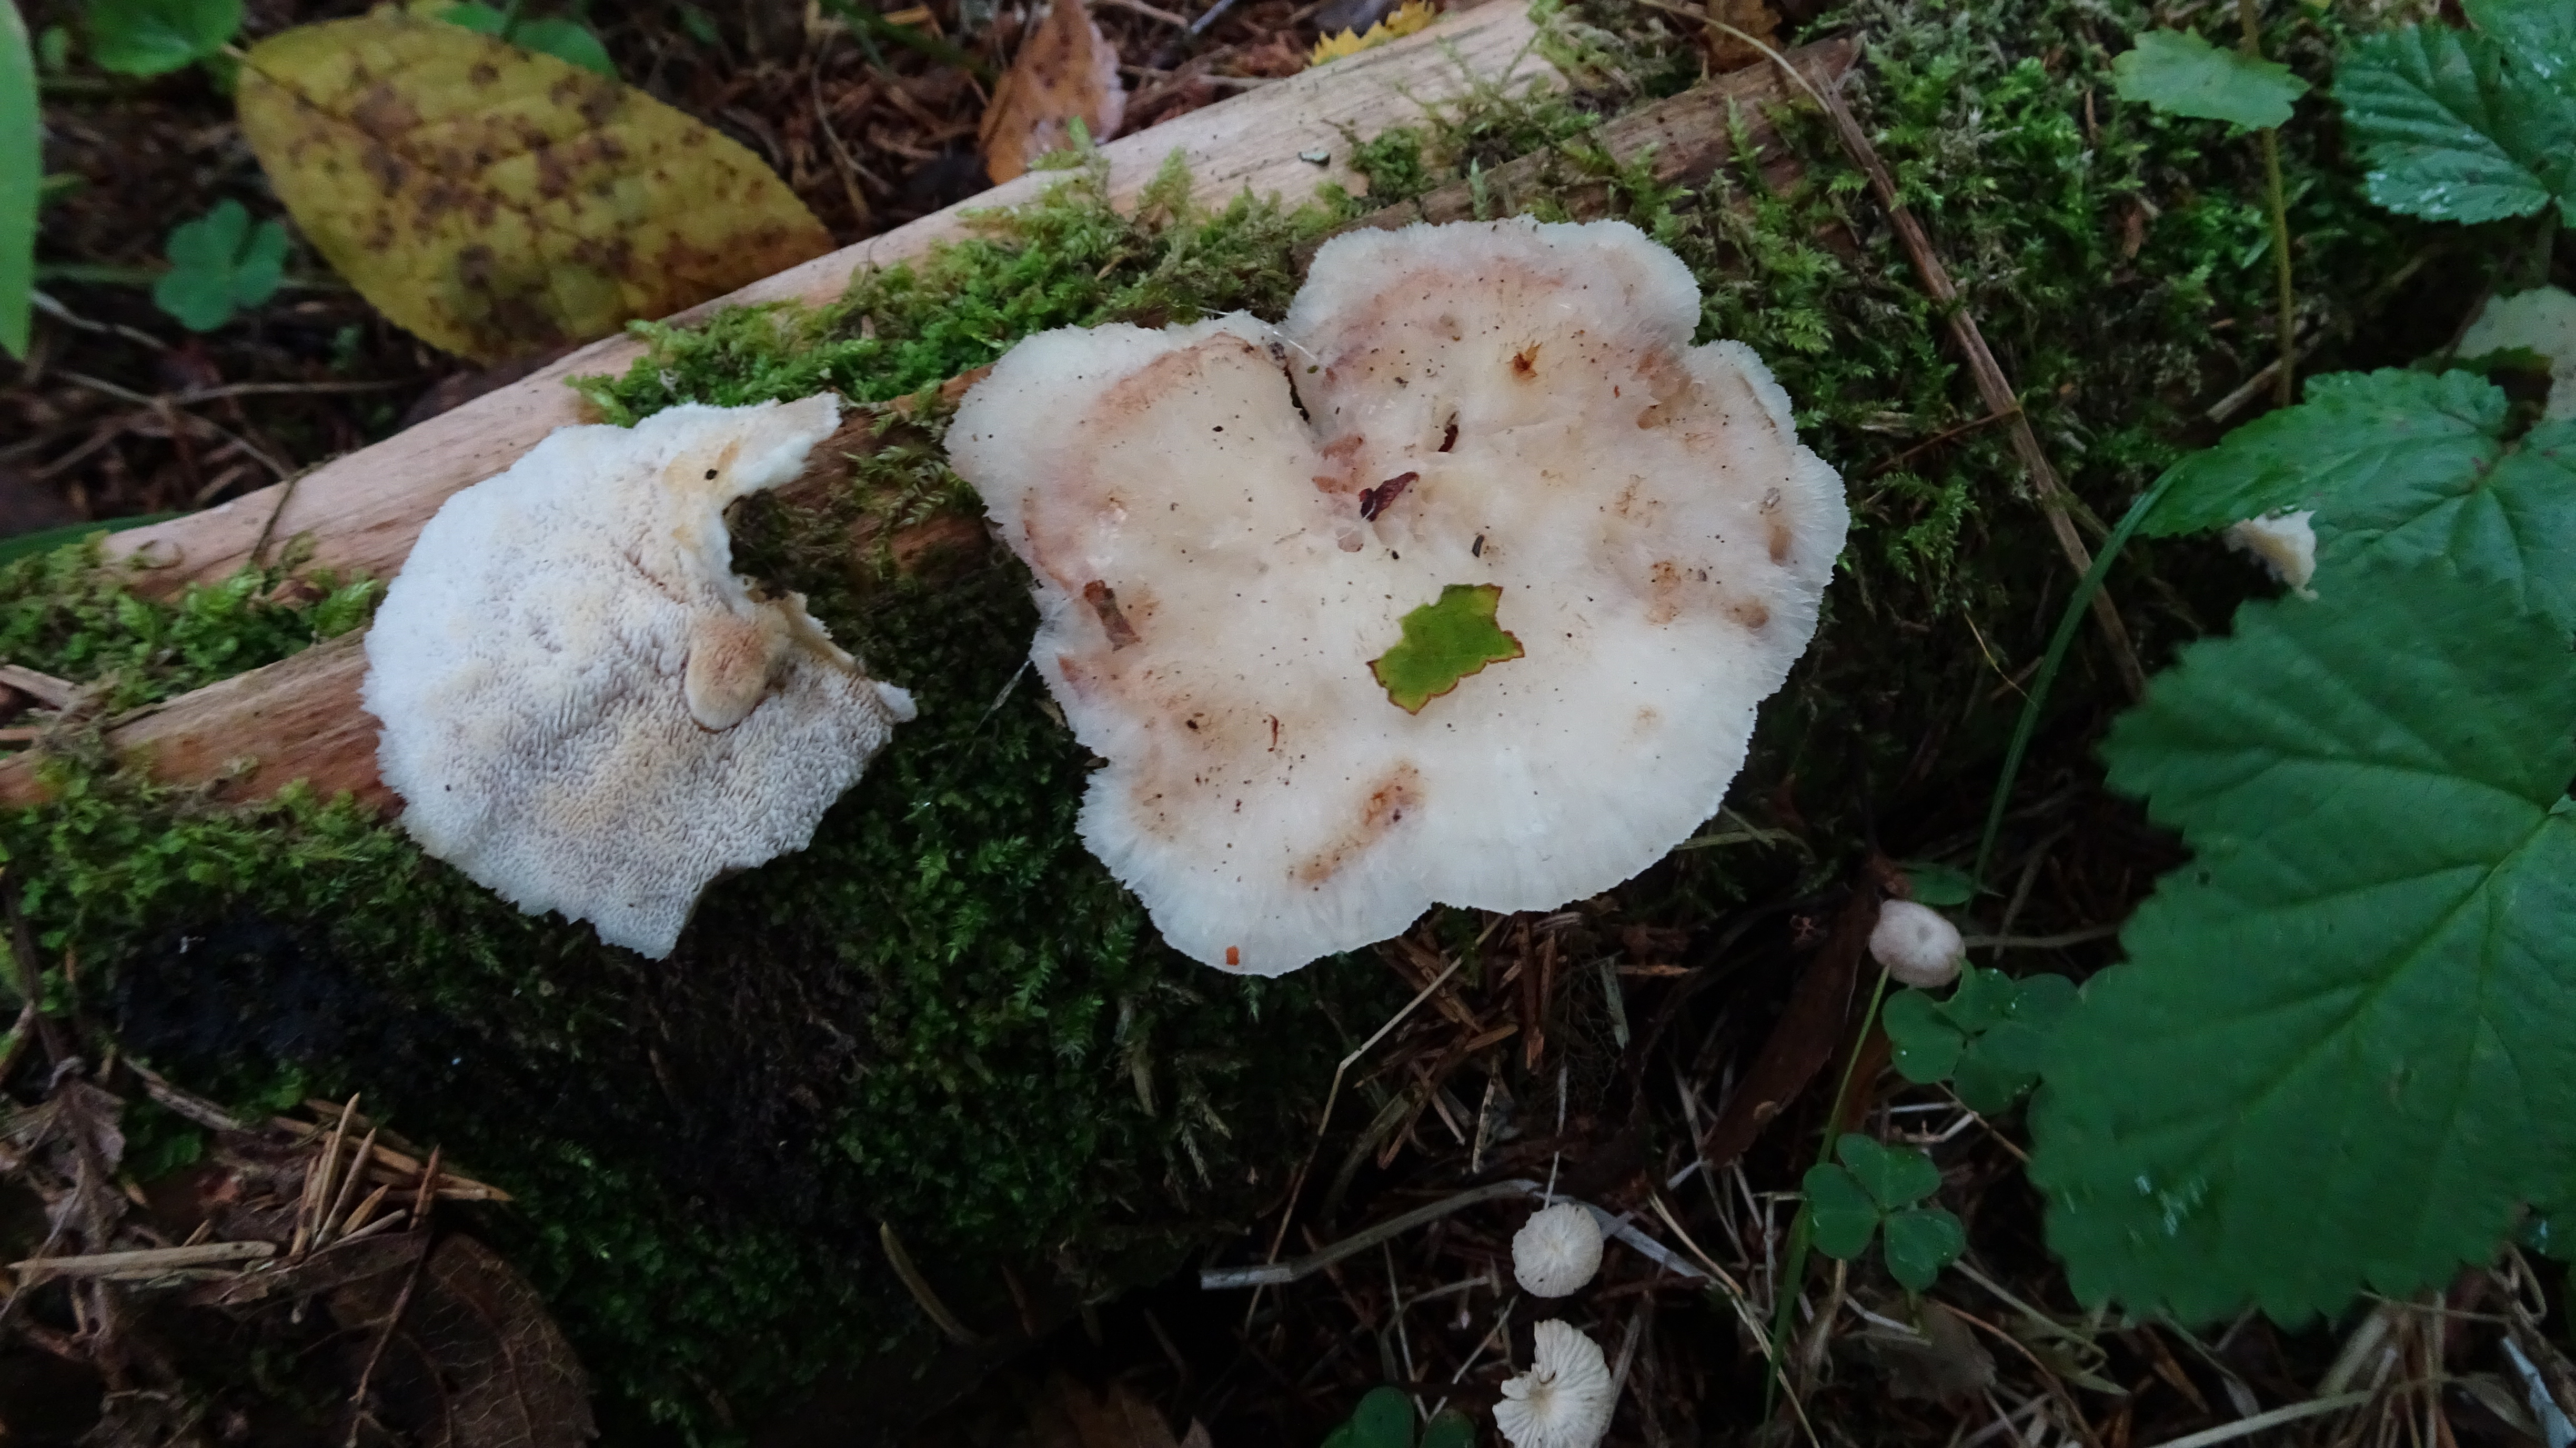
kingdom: Fungi
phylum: Basidiomycota
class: Agaricomycetes
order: Polyporales
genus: Fuscopostia
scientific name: Fuscopostia fragilis
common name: Brown-staining cheese polypore
